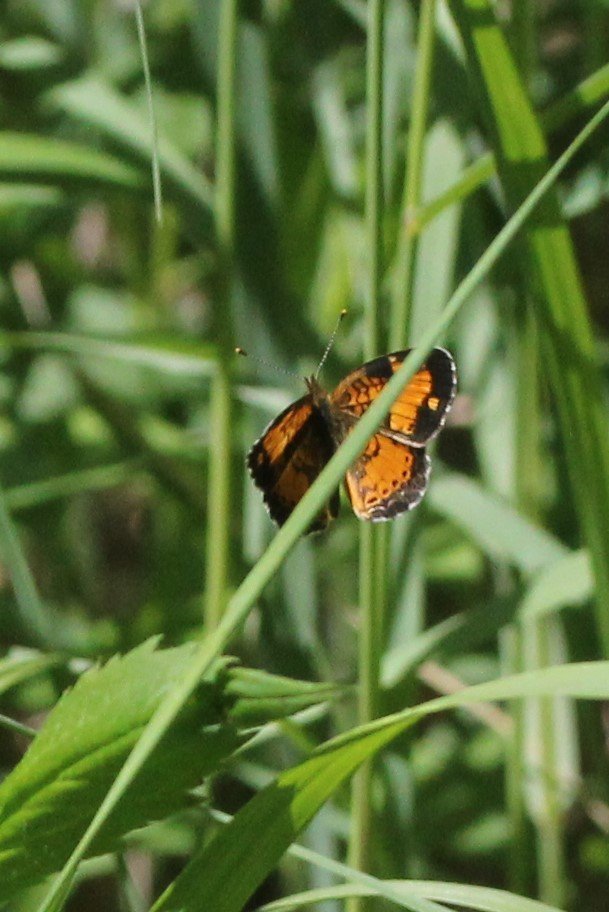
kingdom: Animalia
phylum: Arthropoda
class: Insecta
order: Lepidoptera
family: Nymphalidae
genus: Phyciodes
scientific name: Phyciodes tharos
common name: Northern Crescent
